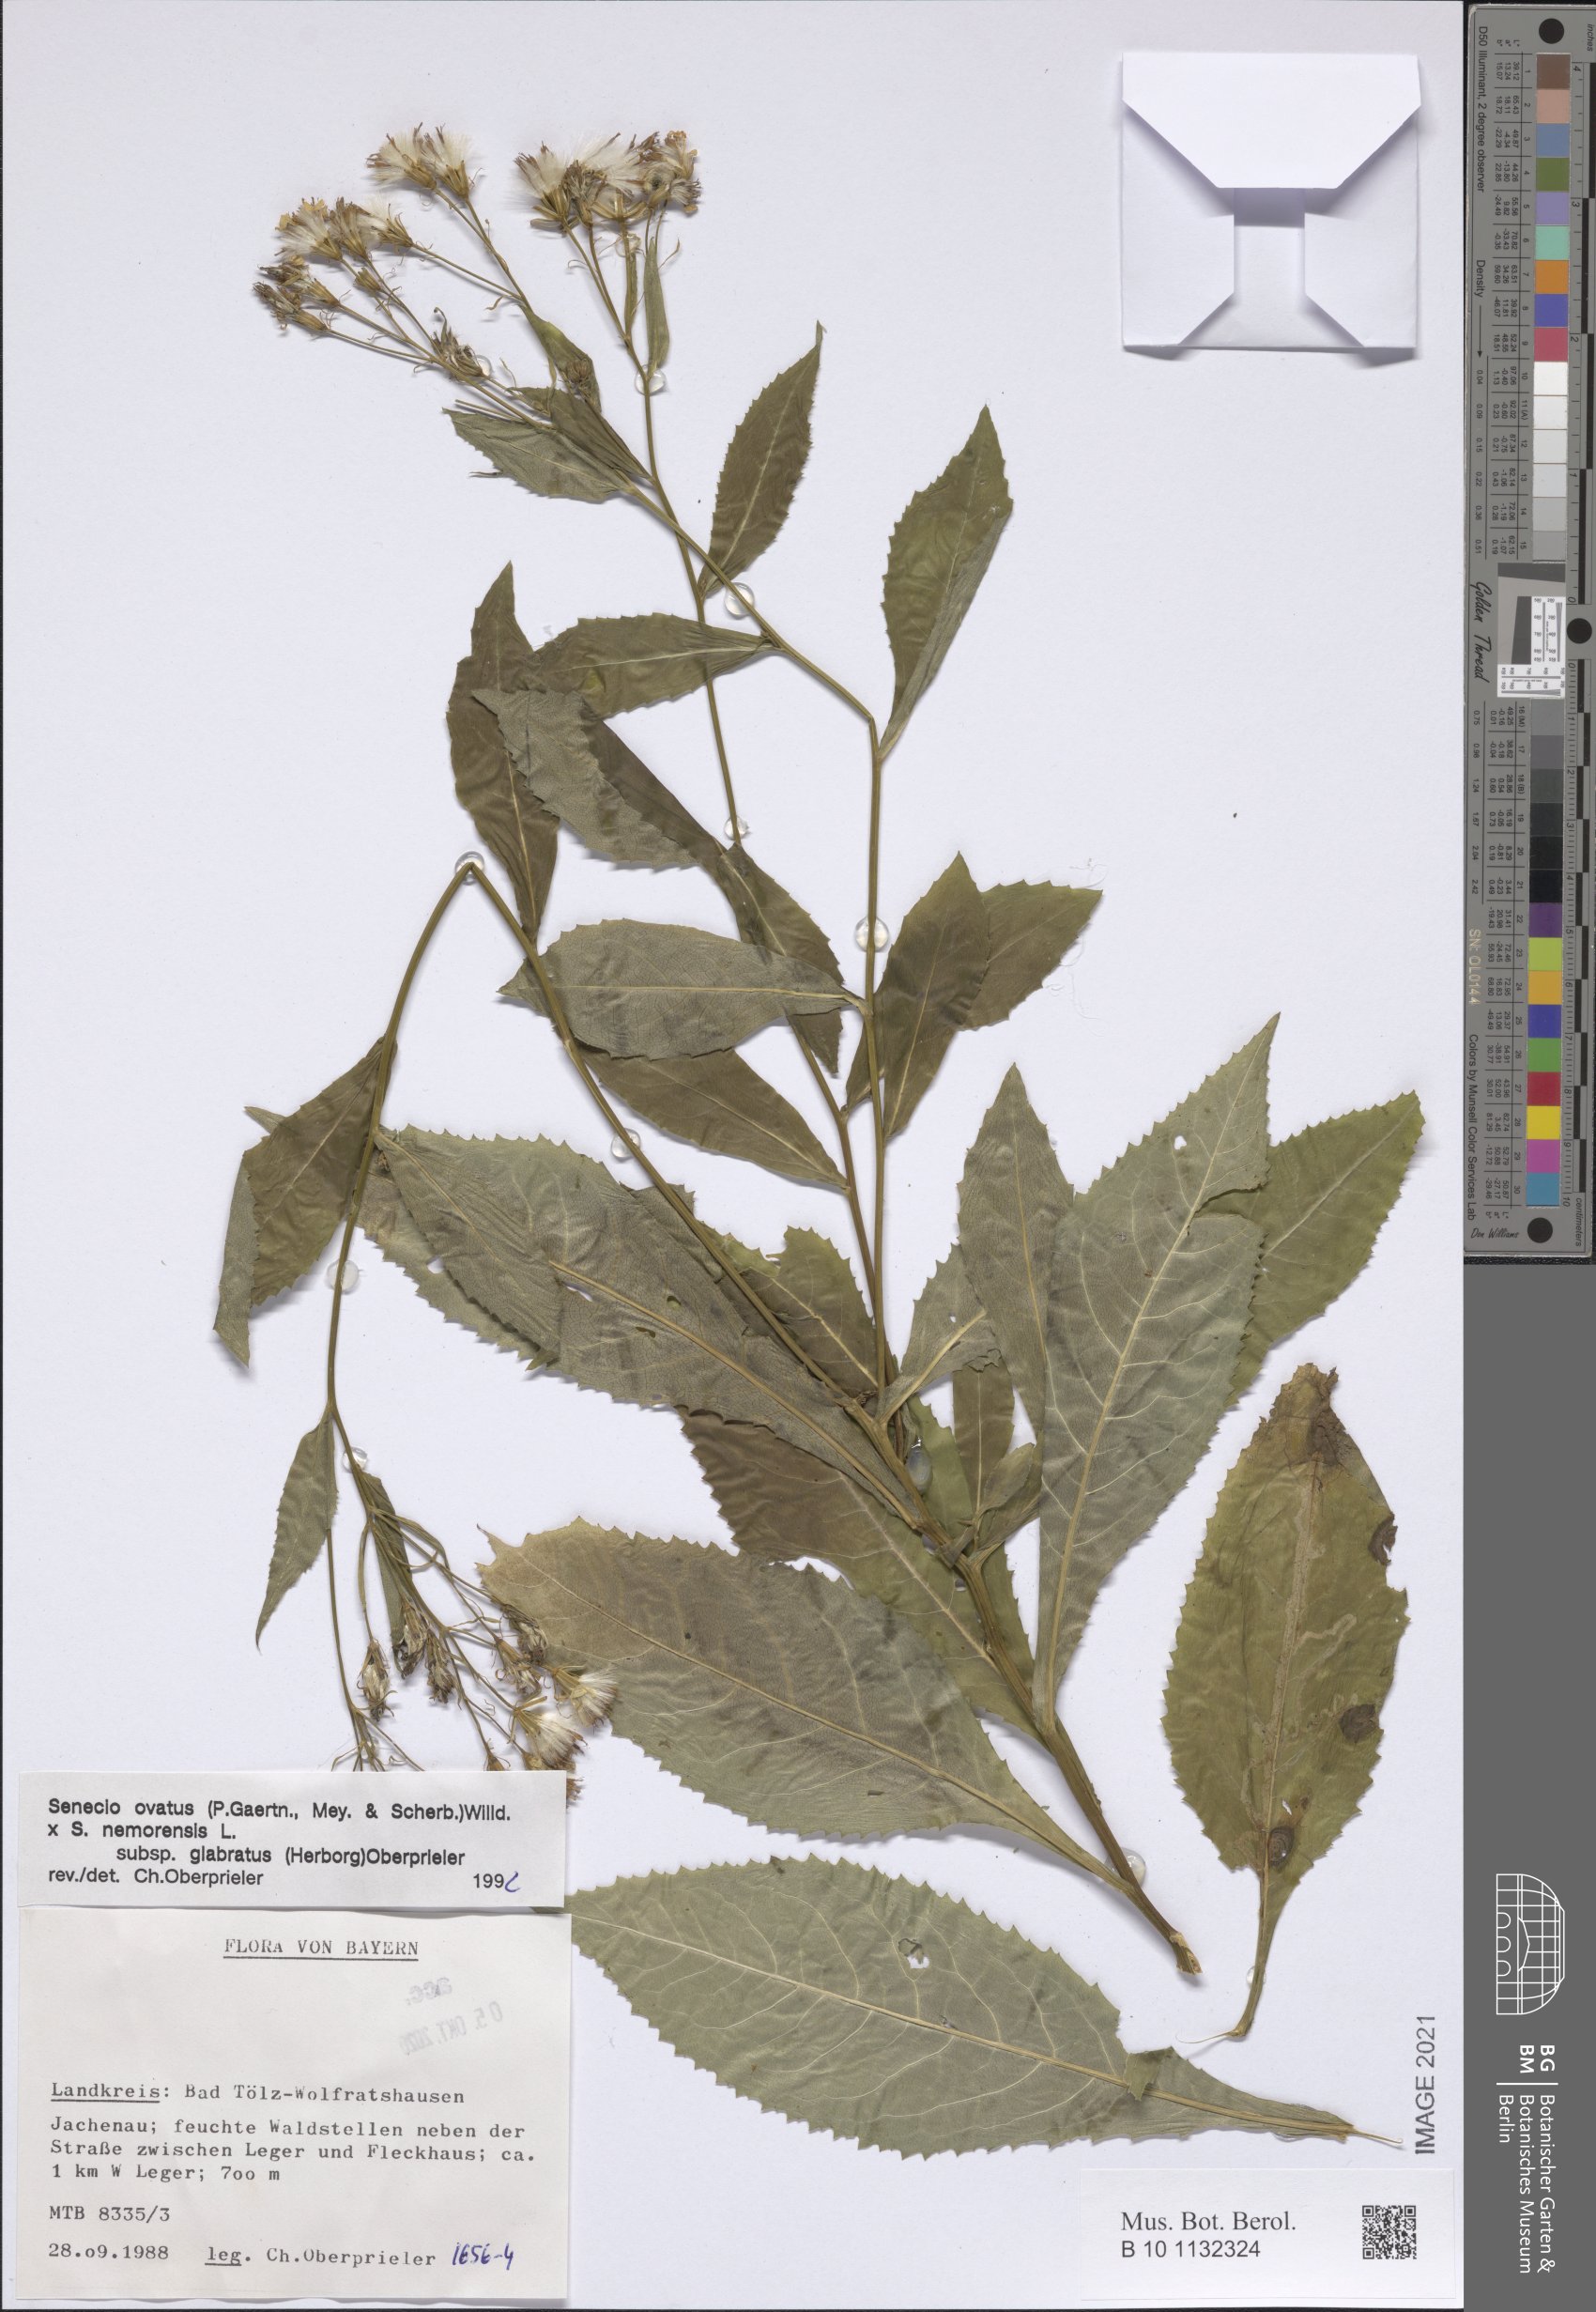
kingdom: Plantae
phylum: Tracheophyta
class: Magnoliopsida
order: Asterales
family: Asteraceae
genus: Senecio
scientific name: Senecio ovatus
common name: Wood ragwort
